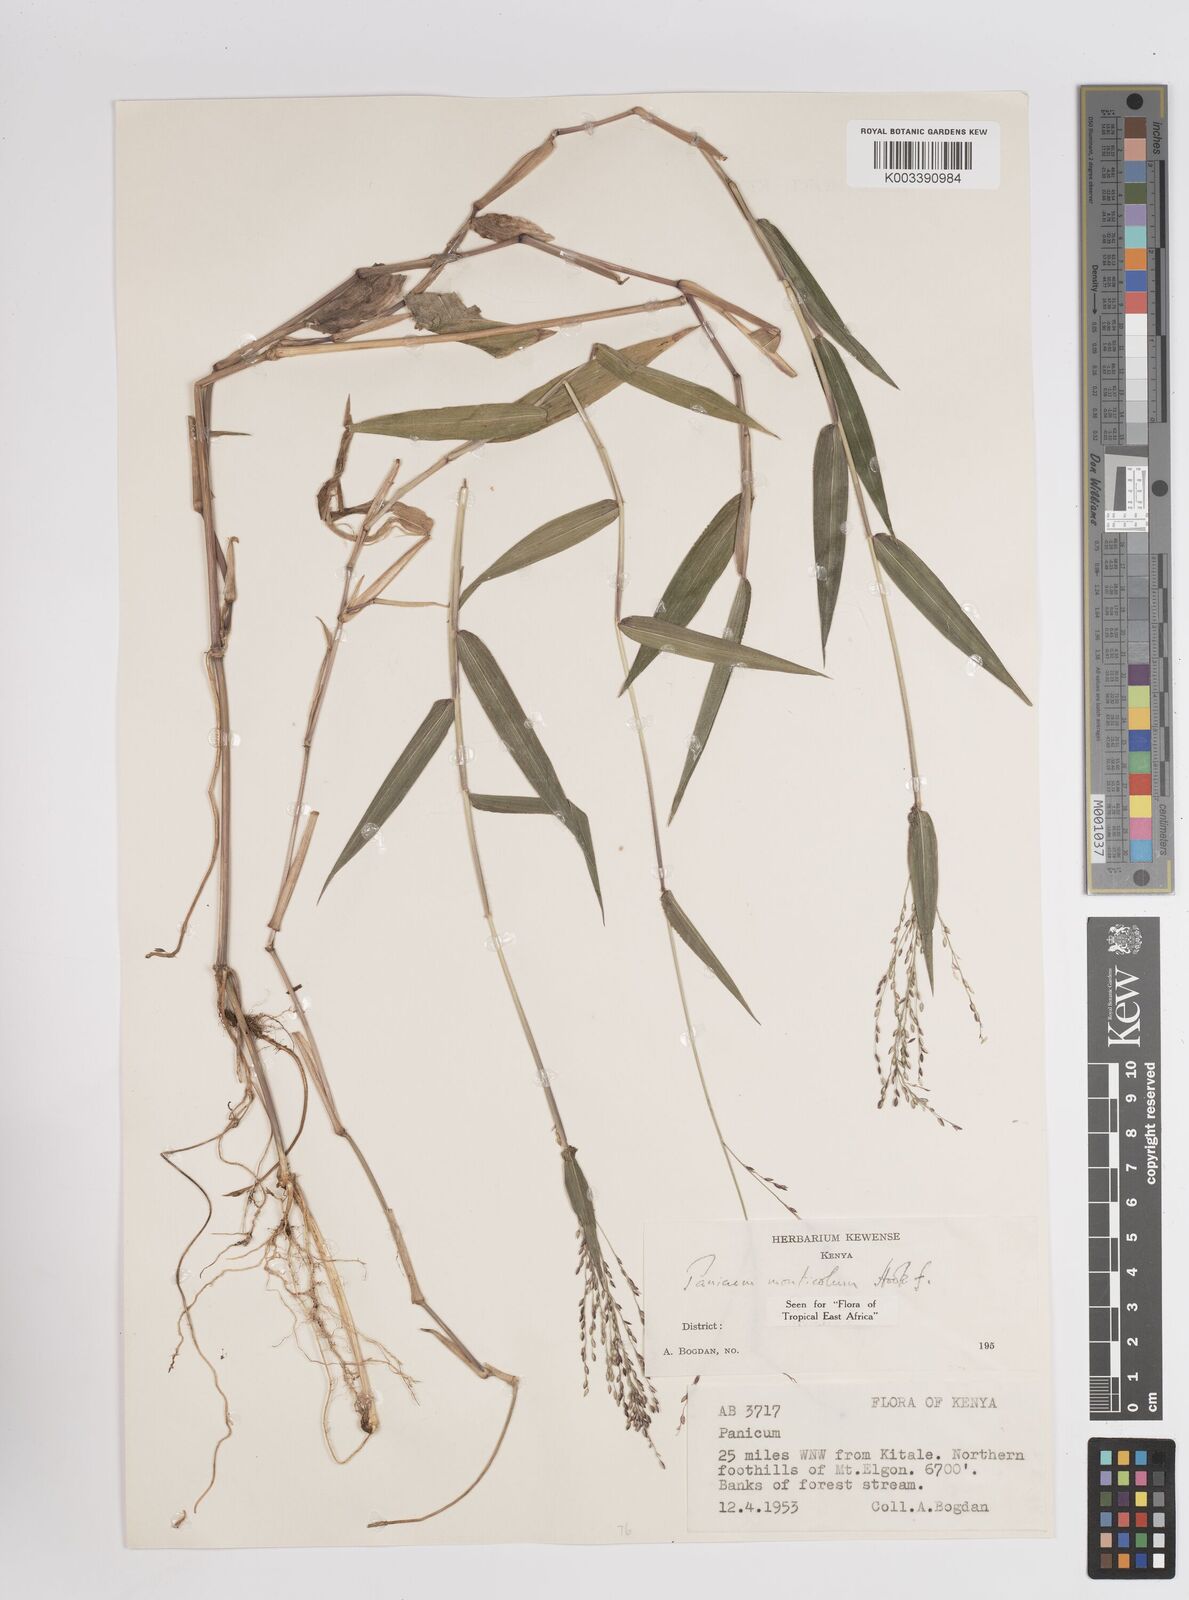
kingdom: Plantae
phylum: Tracheophyta
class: Liliopsida
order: Poales
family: Poaceae
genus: Panicum
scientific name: Panicum monticola
